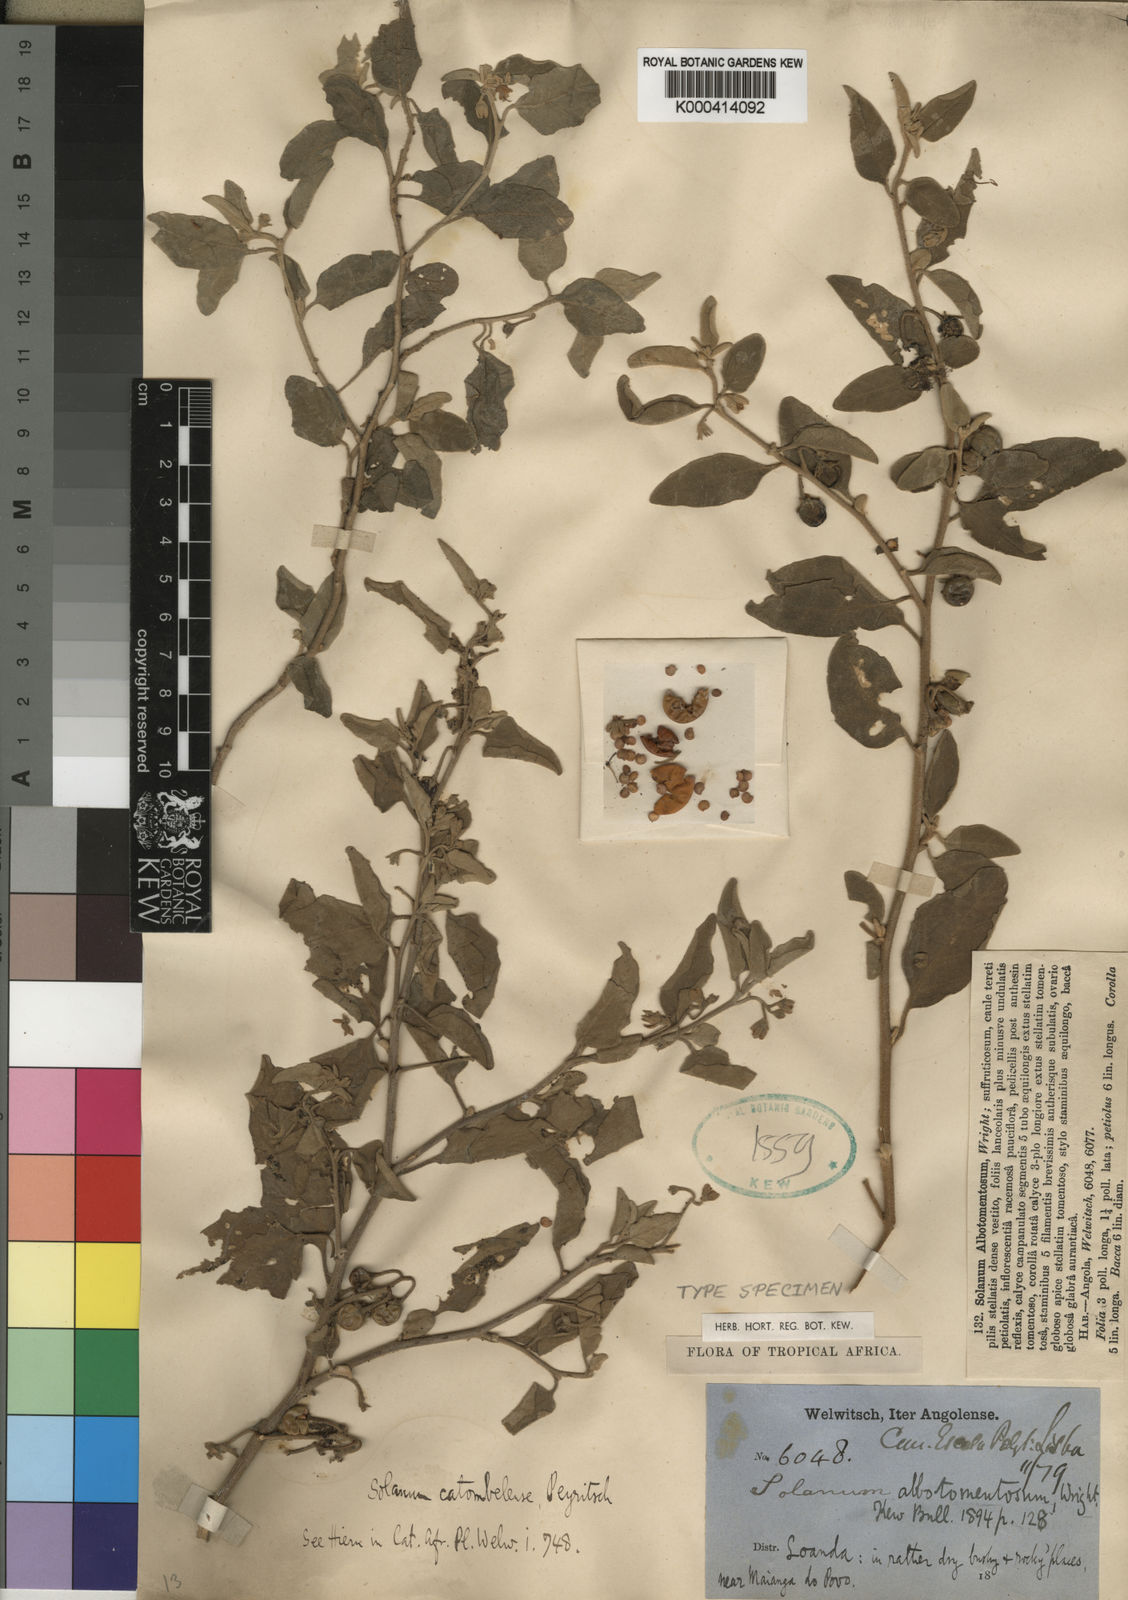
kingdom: Plantae
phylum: Tracheophyta
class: Magnoliopsida
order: Solanales
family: Solanaceae
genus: Solanum
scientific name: Solanum catombelense
